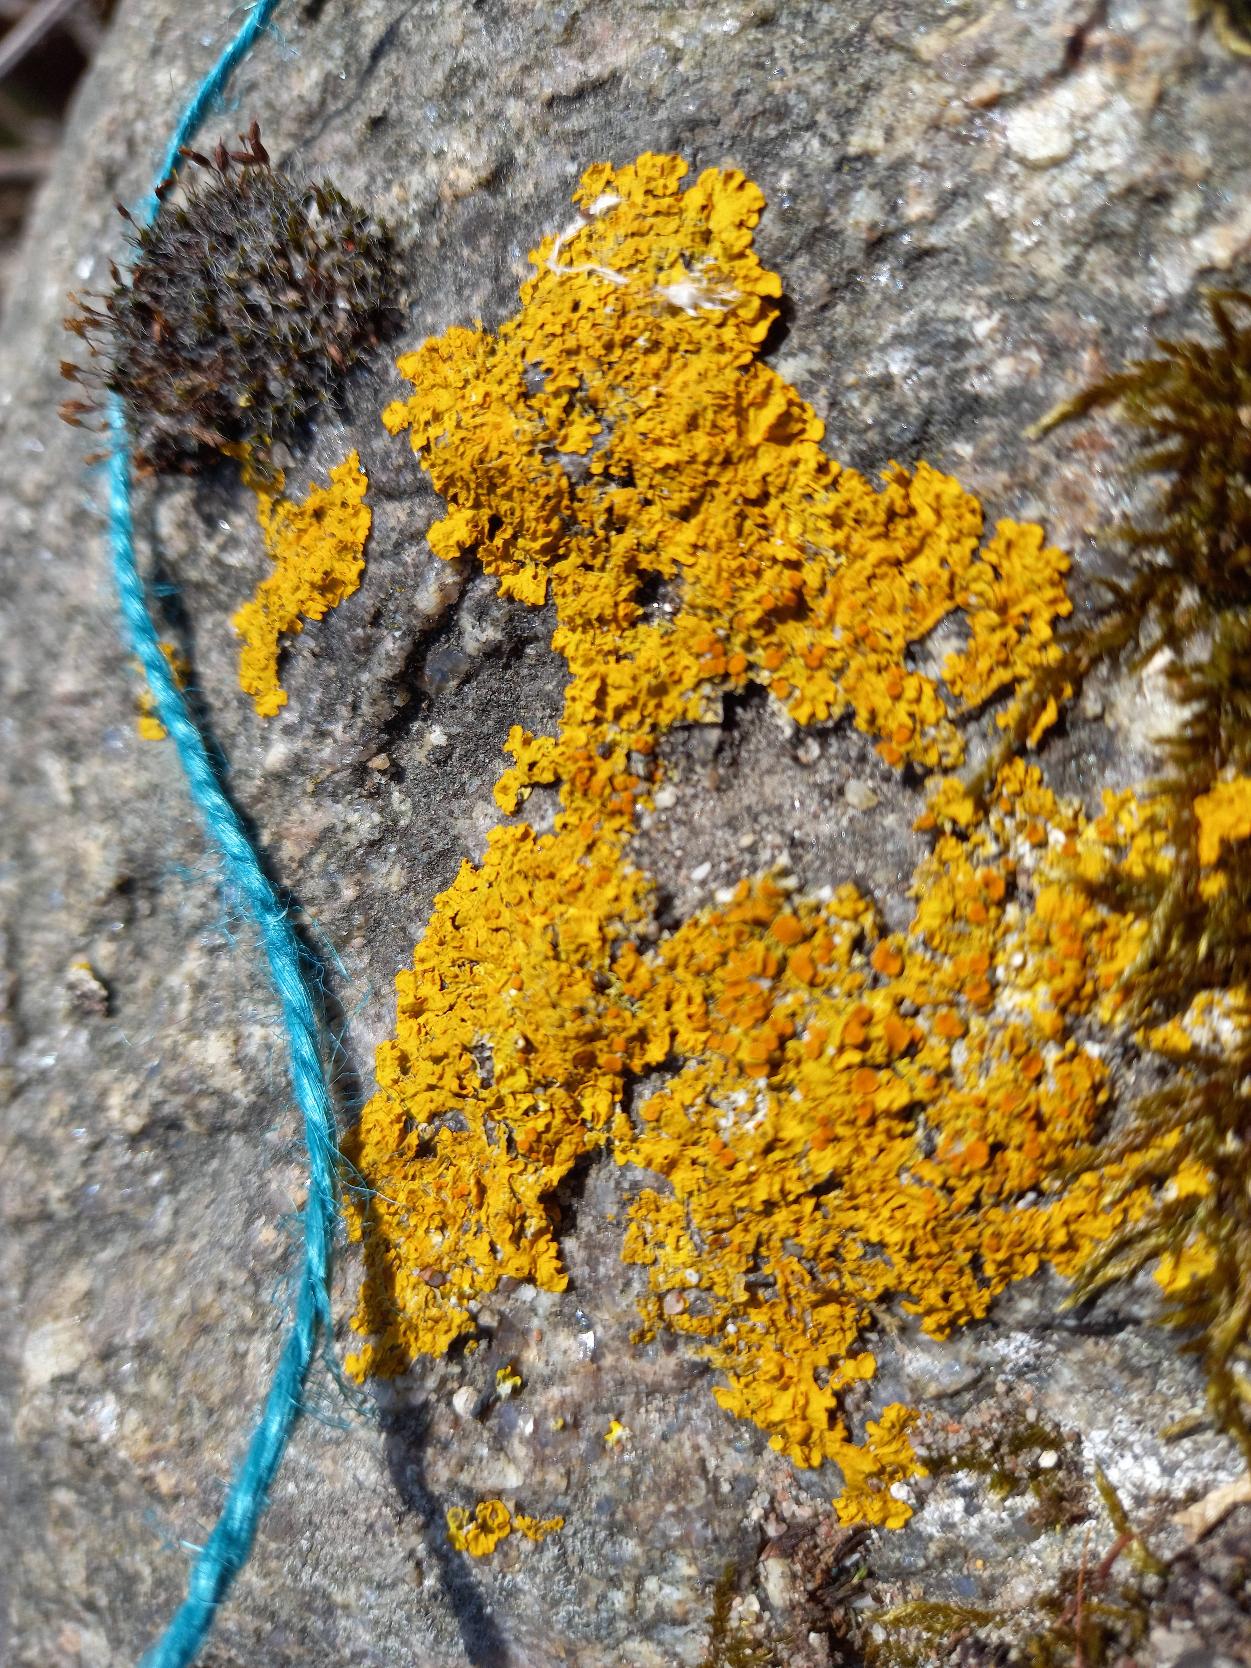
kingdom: Fungi
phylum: Ascomycota
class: Lecanoromycetes
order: Teloschistales
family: Teloschistaceae
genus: Xanthoria
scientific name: Xanthoria parietina
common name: Almindelig væggelav
